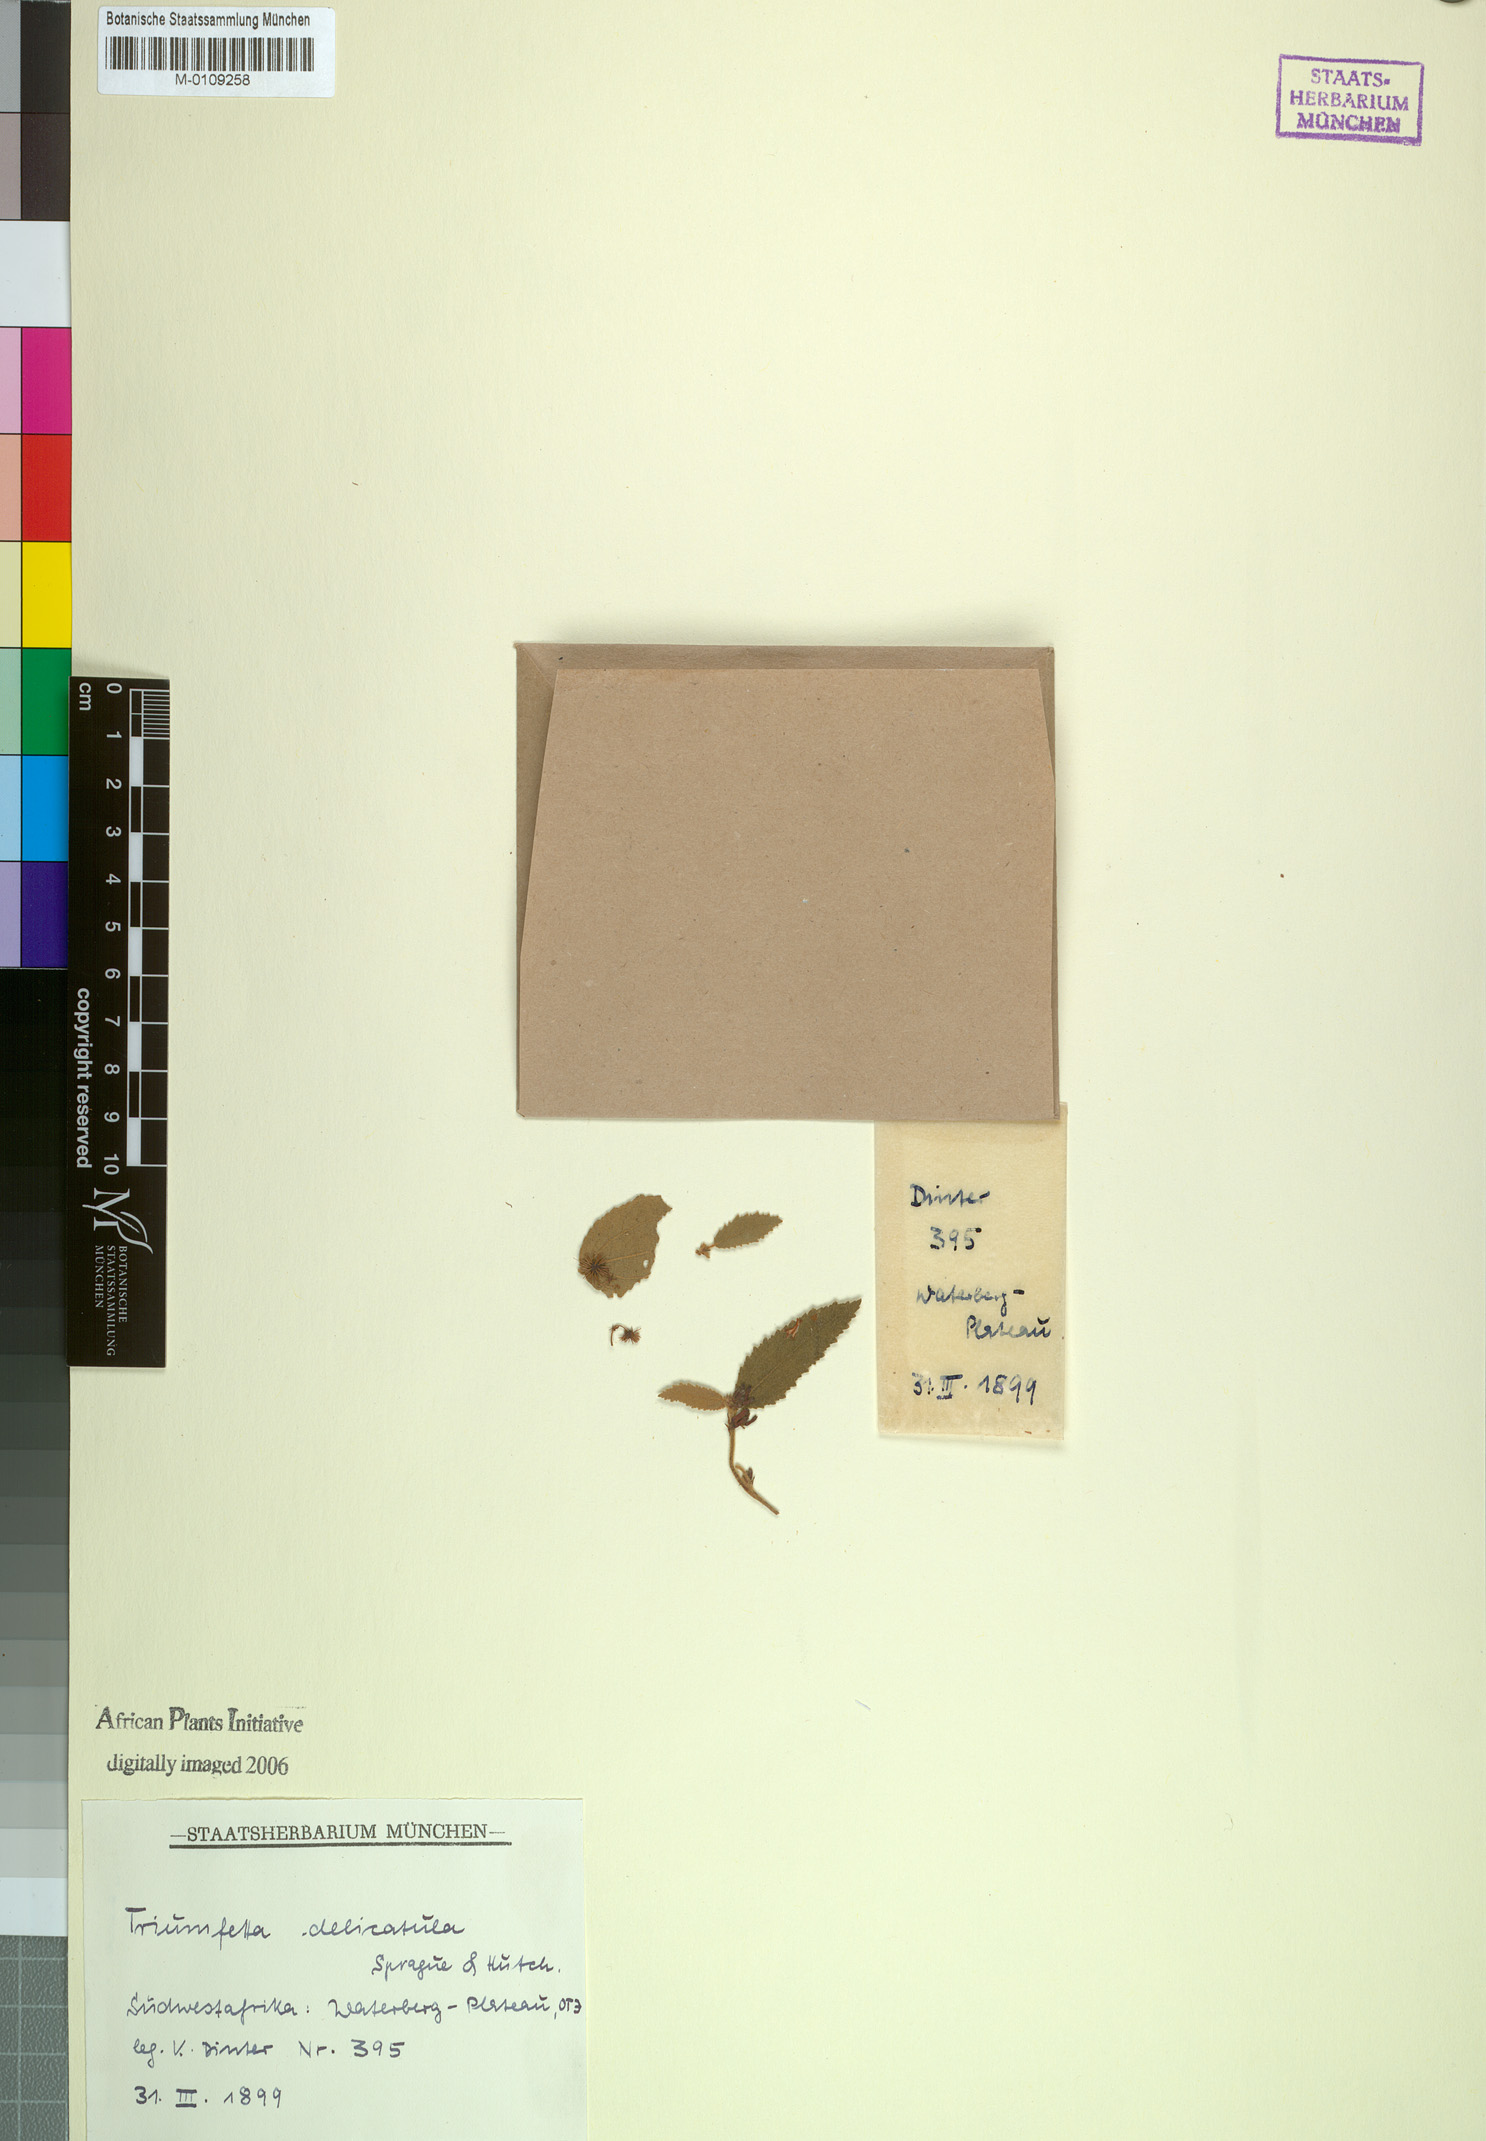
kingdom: Plantae
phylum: Tracheophyta
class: Magnoliopsida
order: Malvales
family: Malvaceae
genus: Triumfetta
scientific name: Triumfetta delicatula
